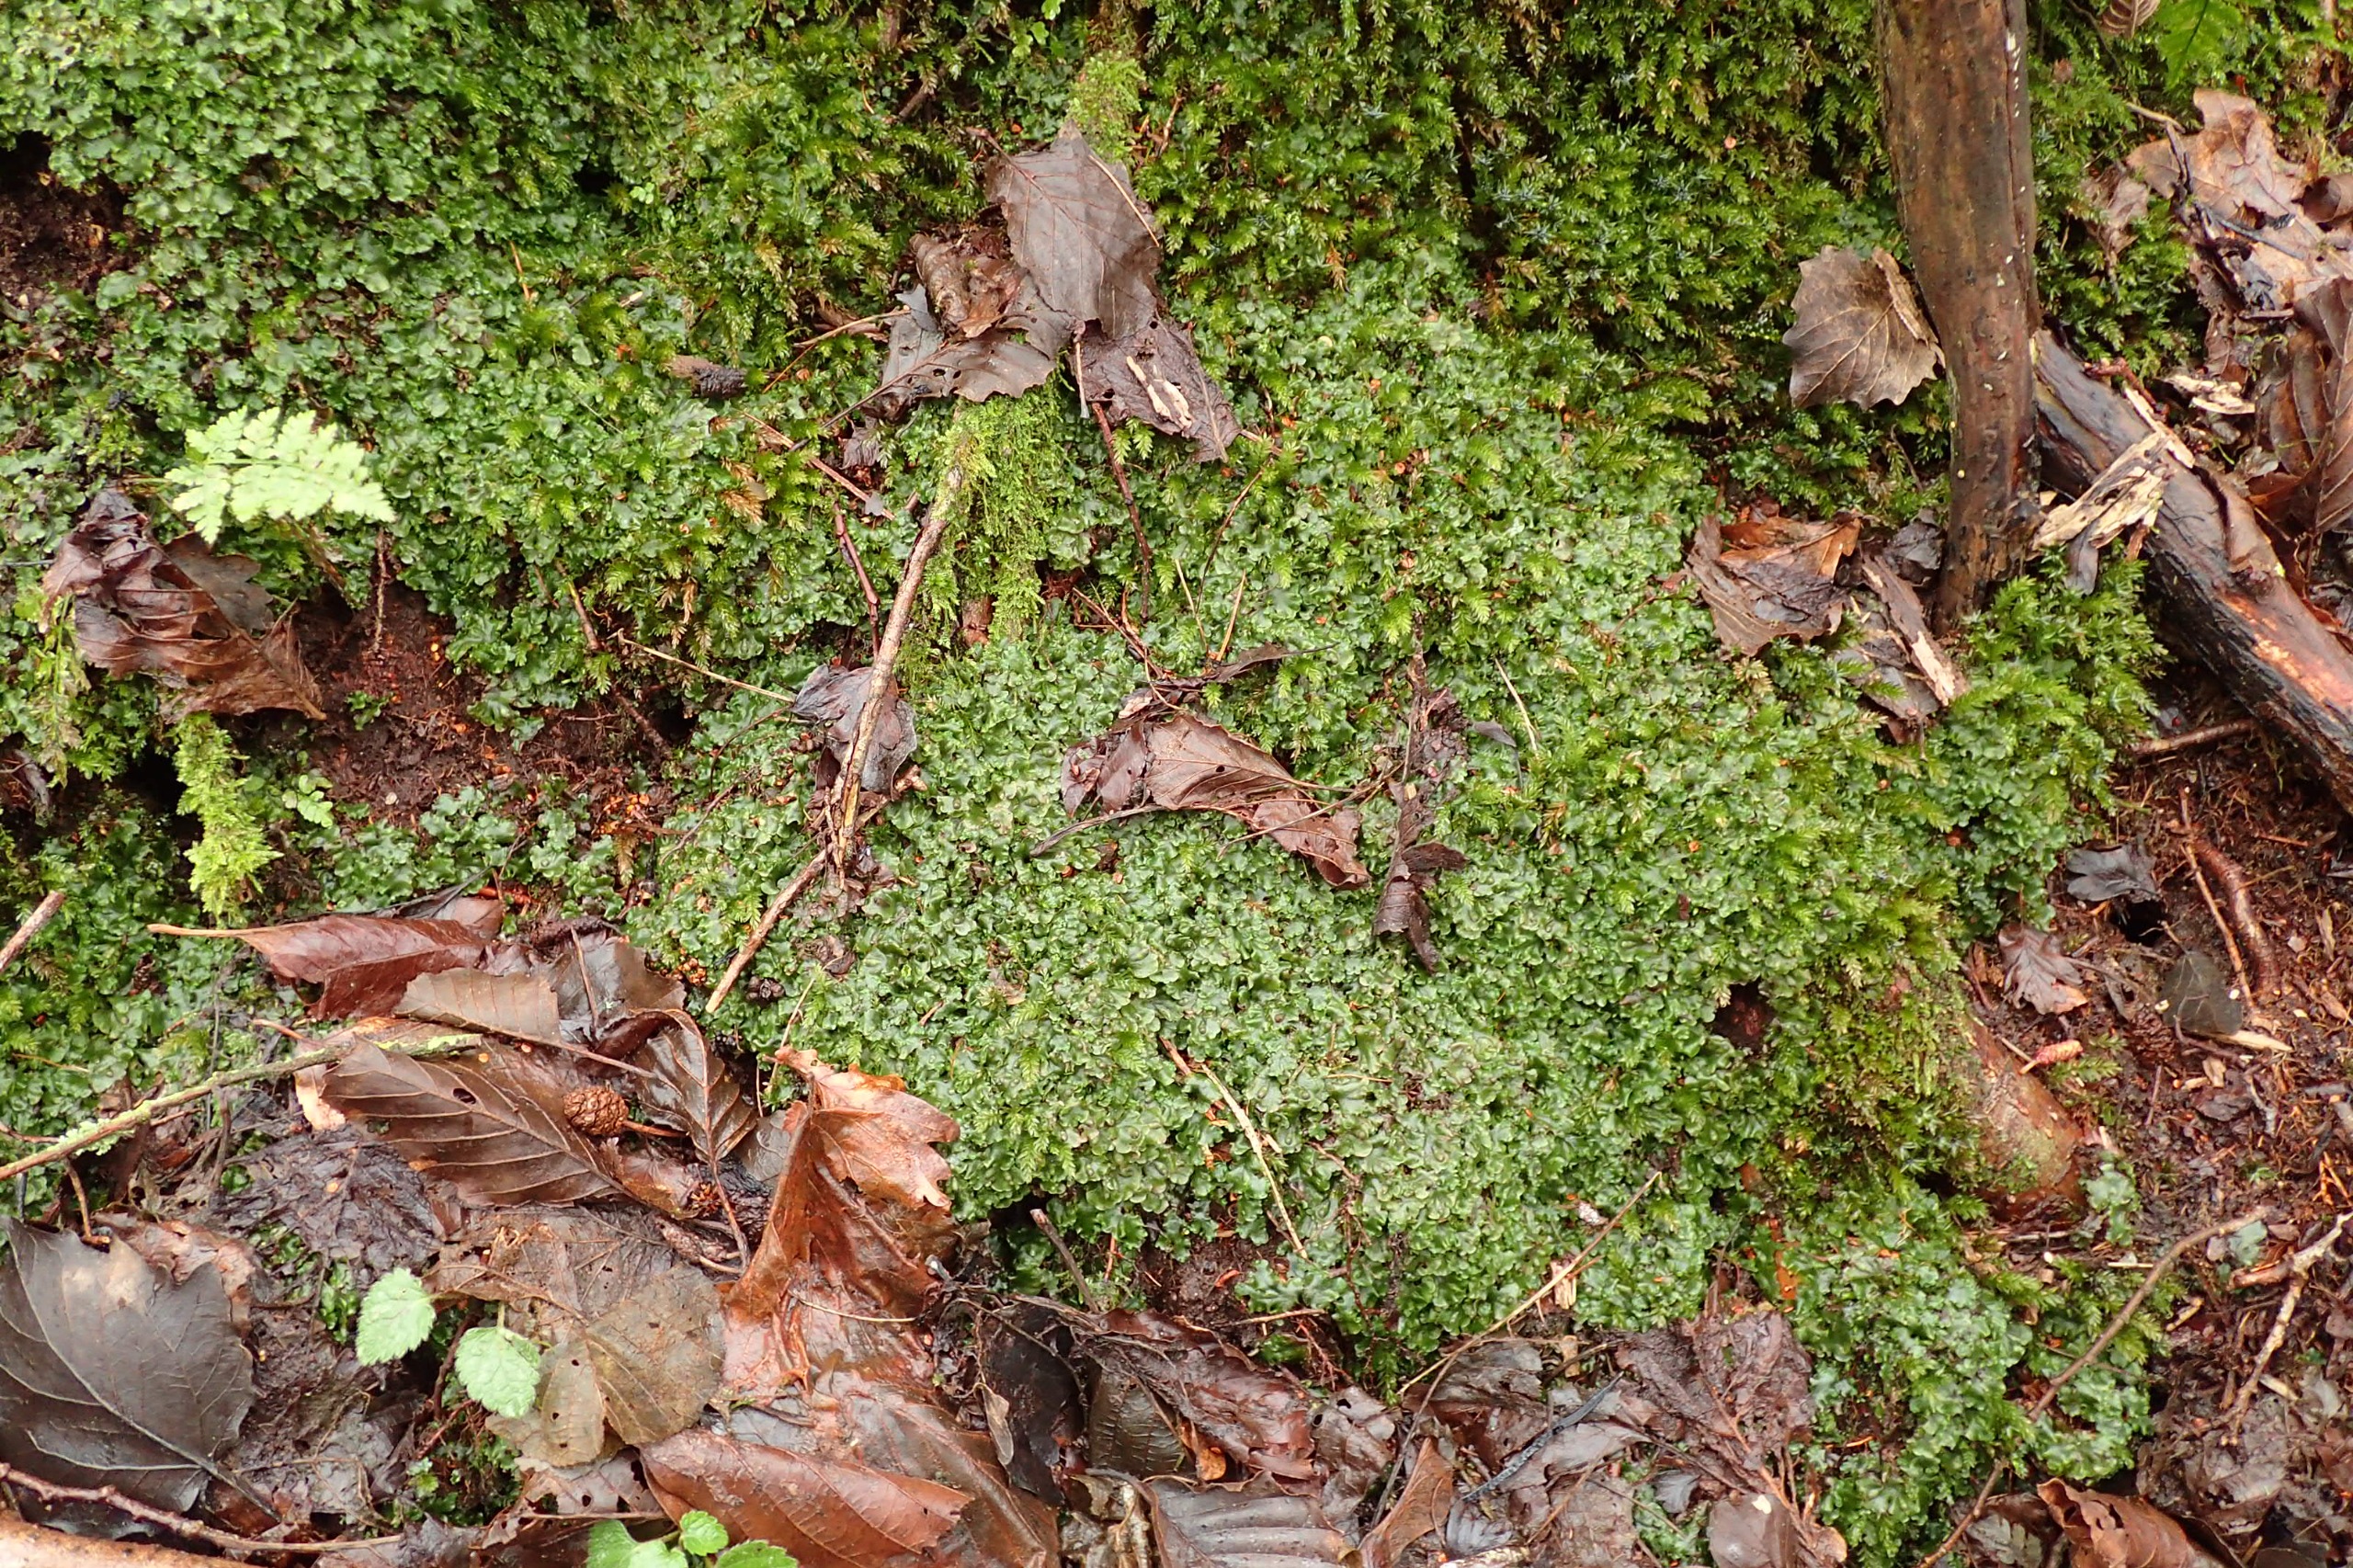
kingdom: Plantae
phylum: Marchantiophyta
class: Jungermanniopsida
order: Pelliales
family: Pelliaceae
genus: Pellia
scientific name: Pellia epiphylla
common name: Enbo ribbeløv
